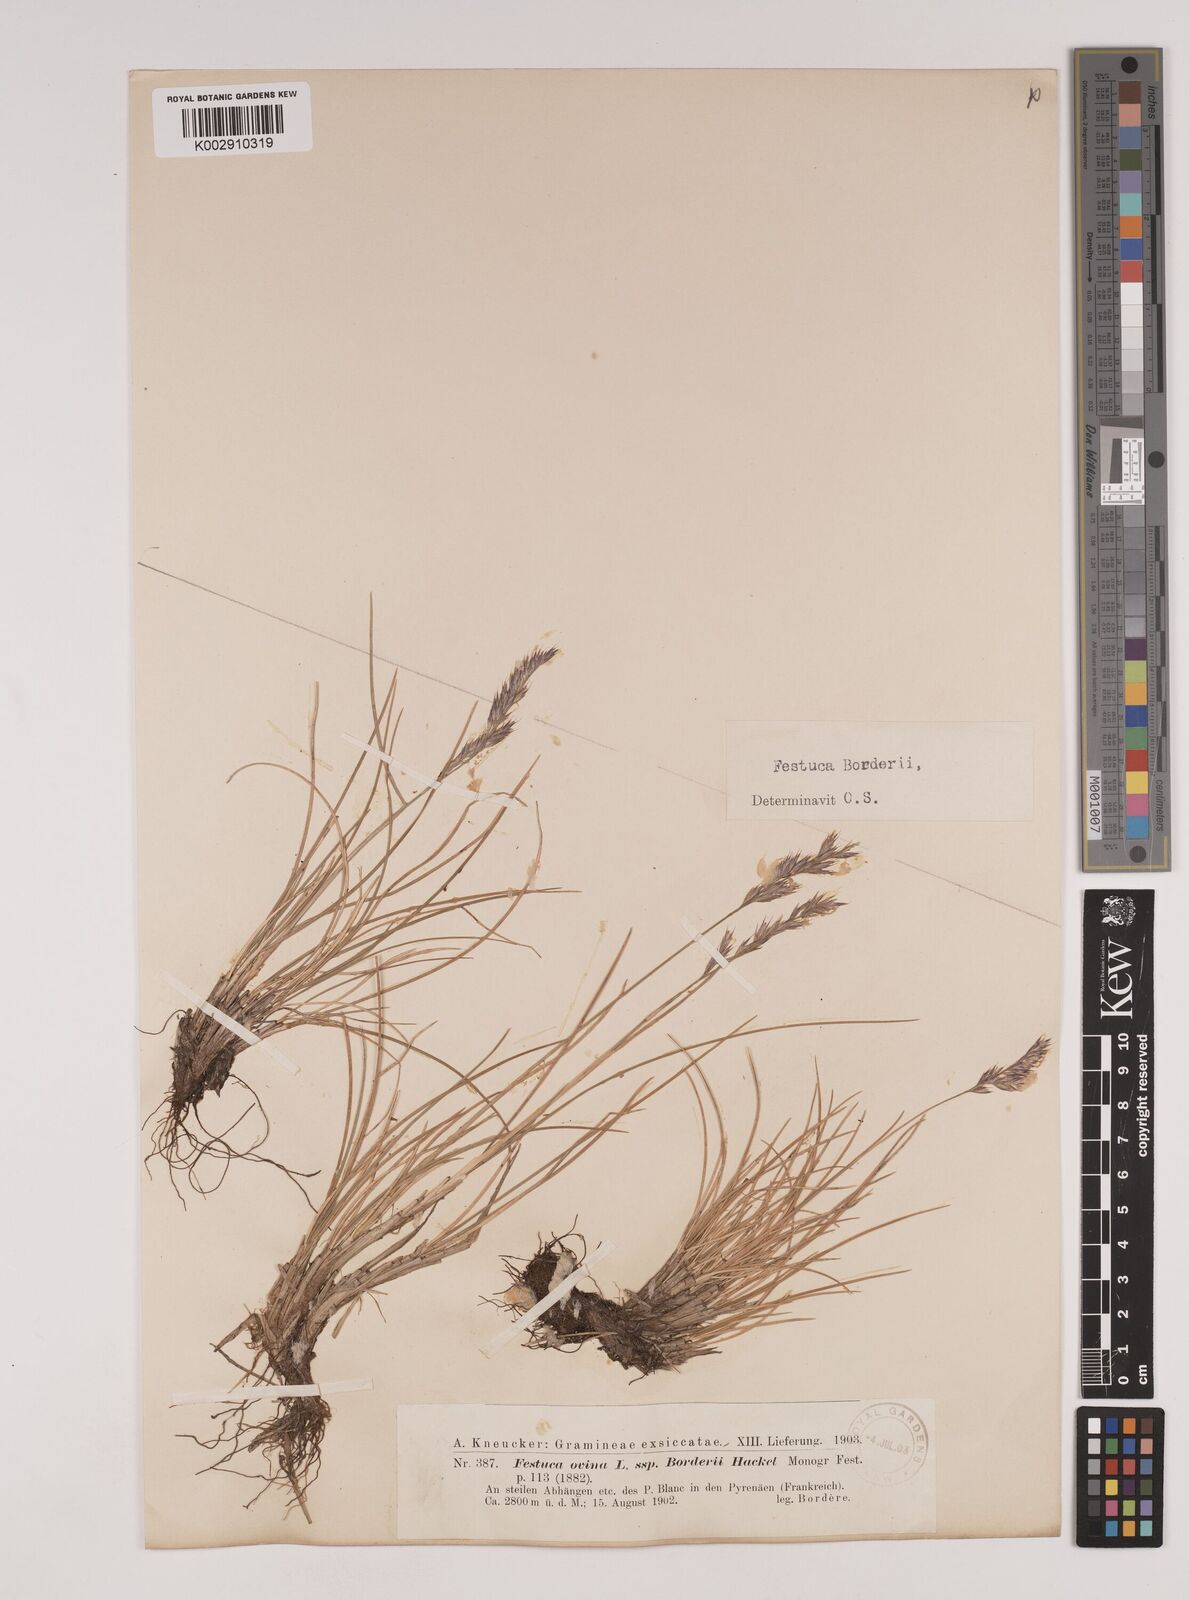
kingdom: Plantae
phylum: Tracheophyta
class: Liliopsida
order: Poales
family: Poaceae
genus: Festuca
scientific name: Festuca borderei
